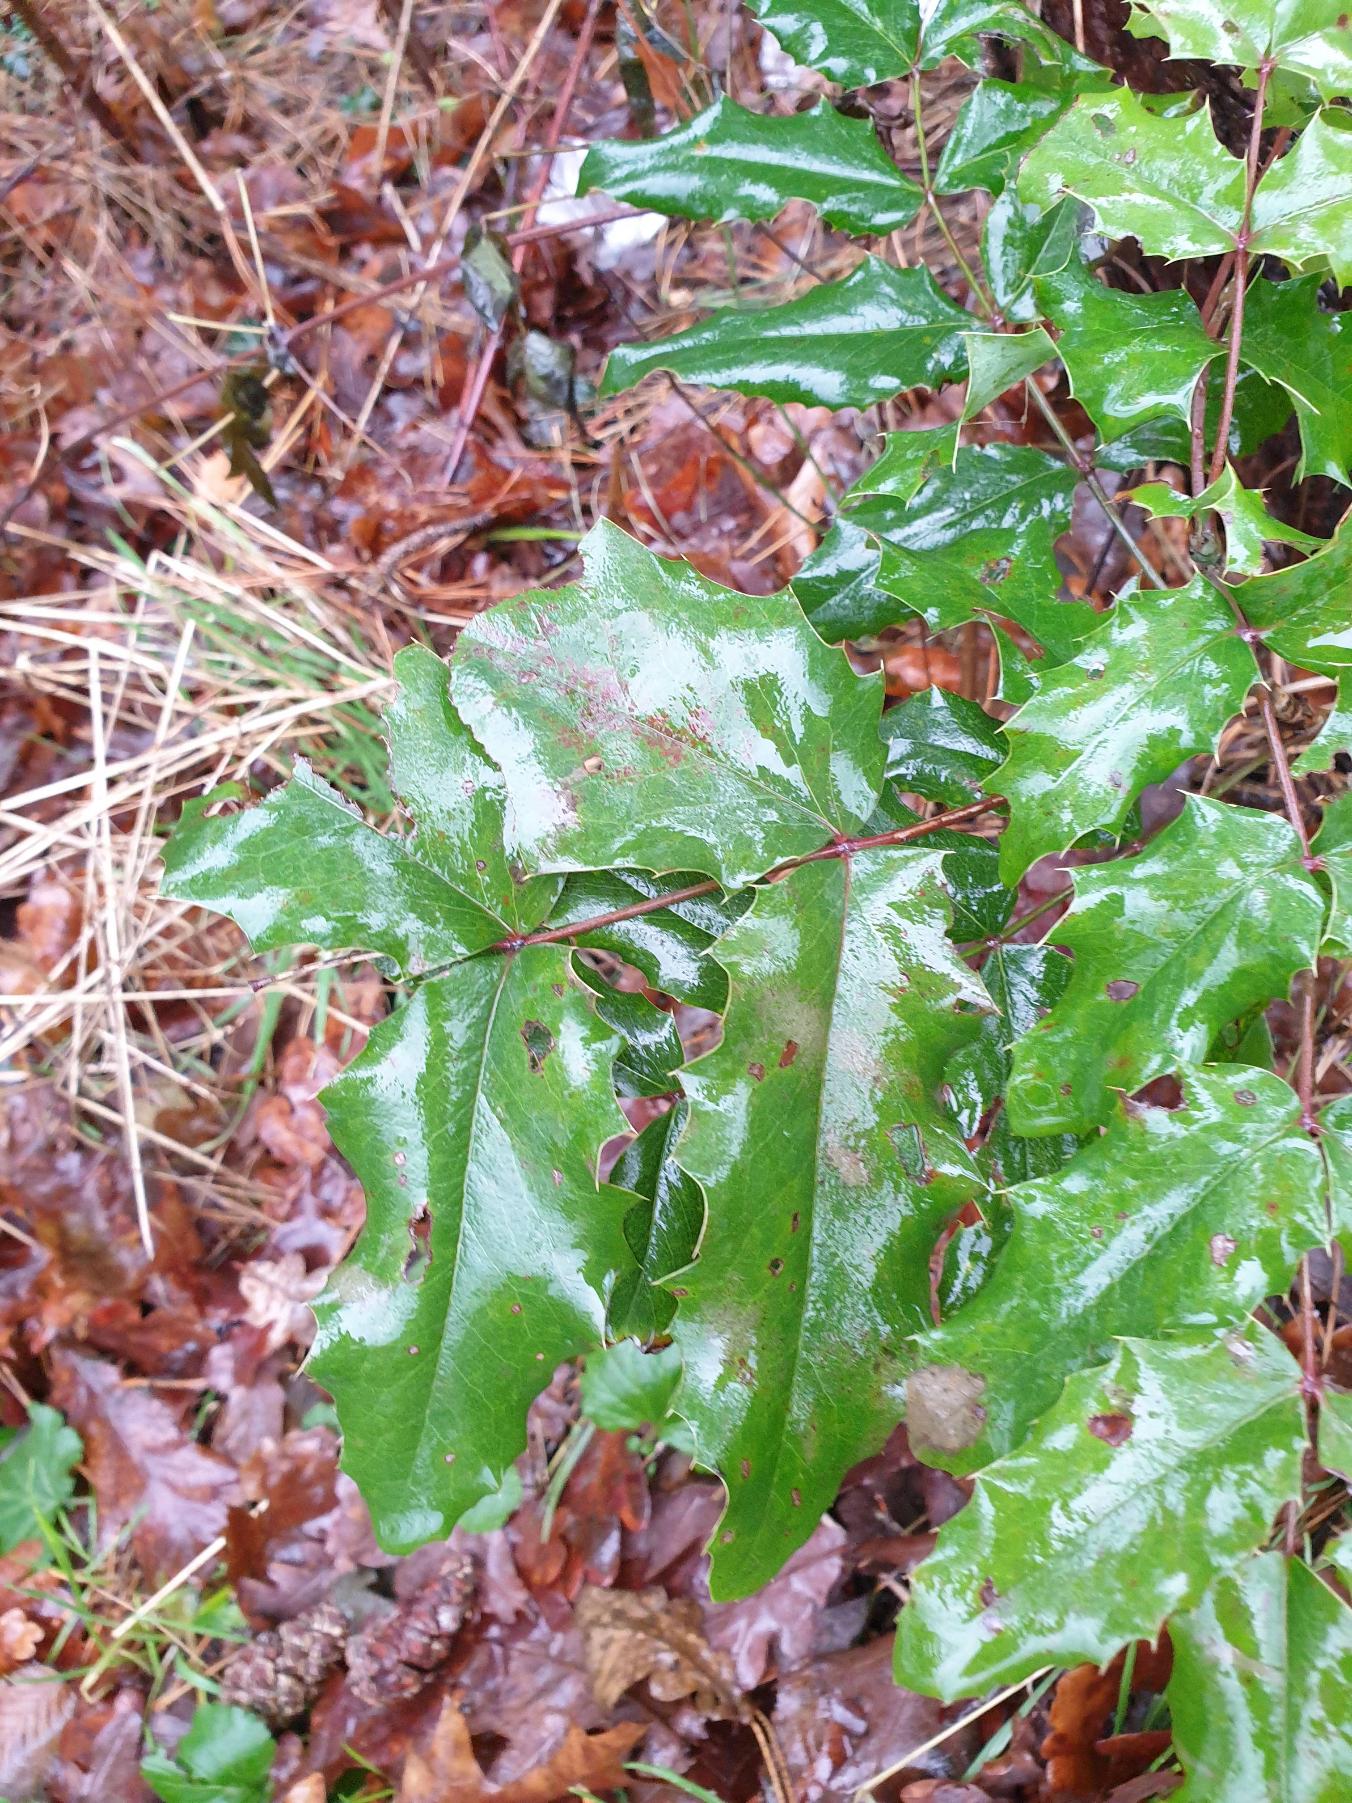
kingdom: Plantae
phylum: Tracheophyta
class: Magnoliopsida
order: Ranunculales
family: Berberidaceae
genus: Mahonia
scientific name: Mahonia aquifolium
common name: Almindelig mahonie
